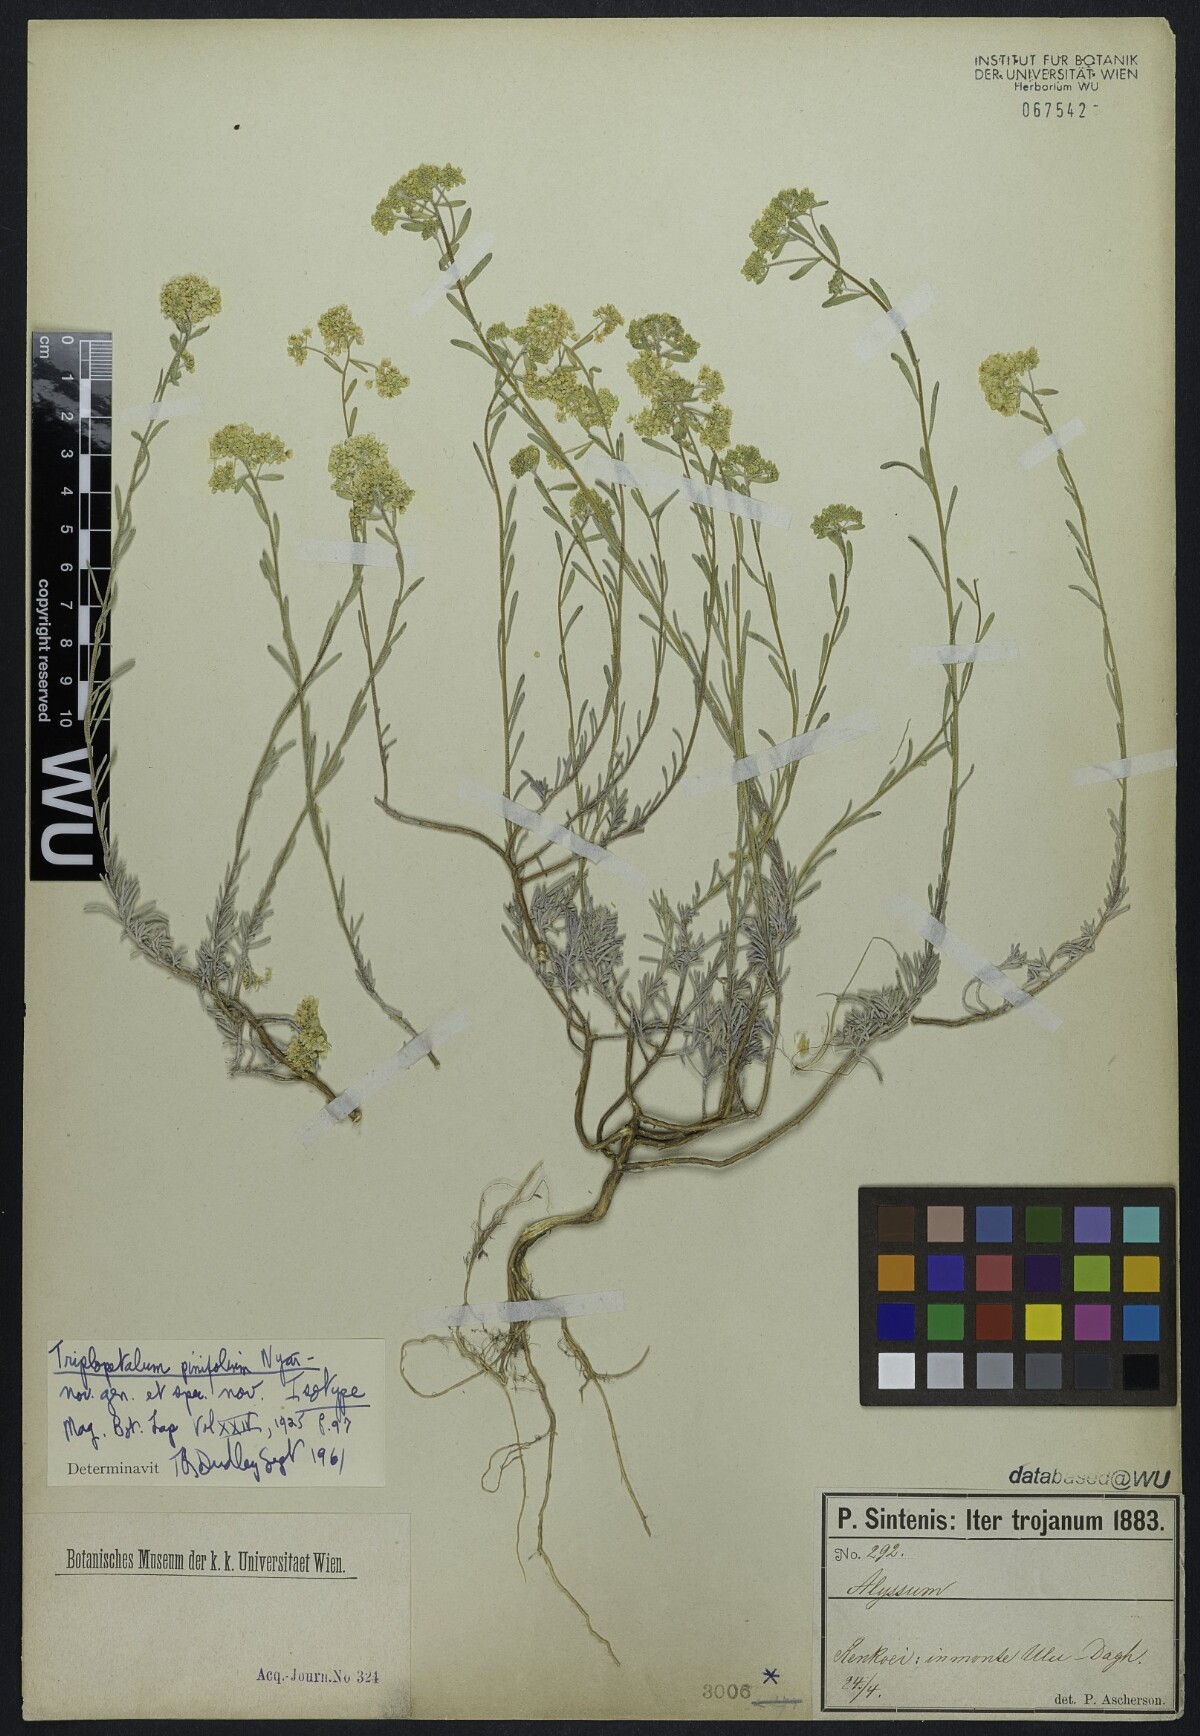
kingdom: Plantae
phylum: Tracheophyta
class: Magnoliopsida
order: Brassicales
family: Brassicaceae
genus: Odontarrhena
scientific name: Odontarrhena pinifolia
